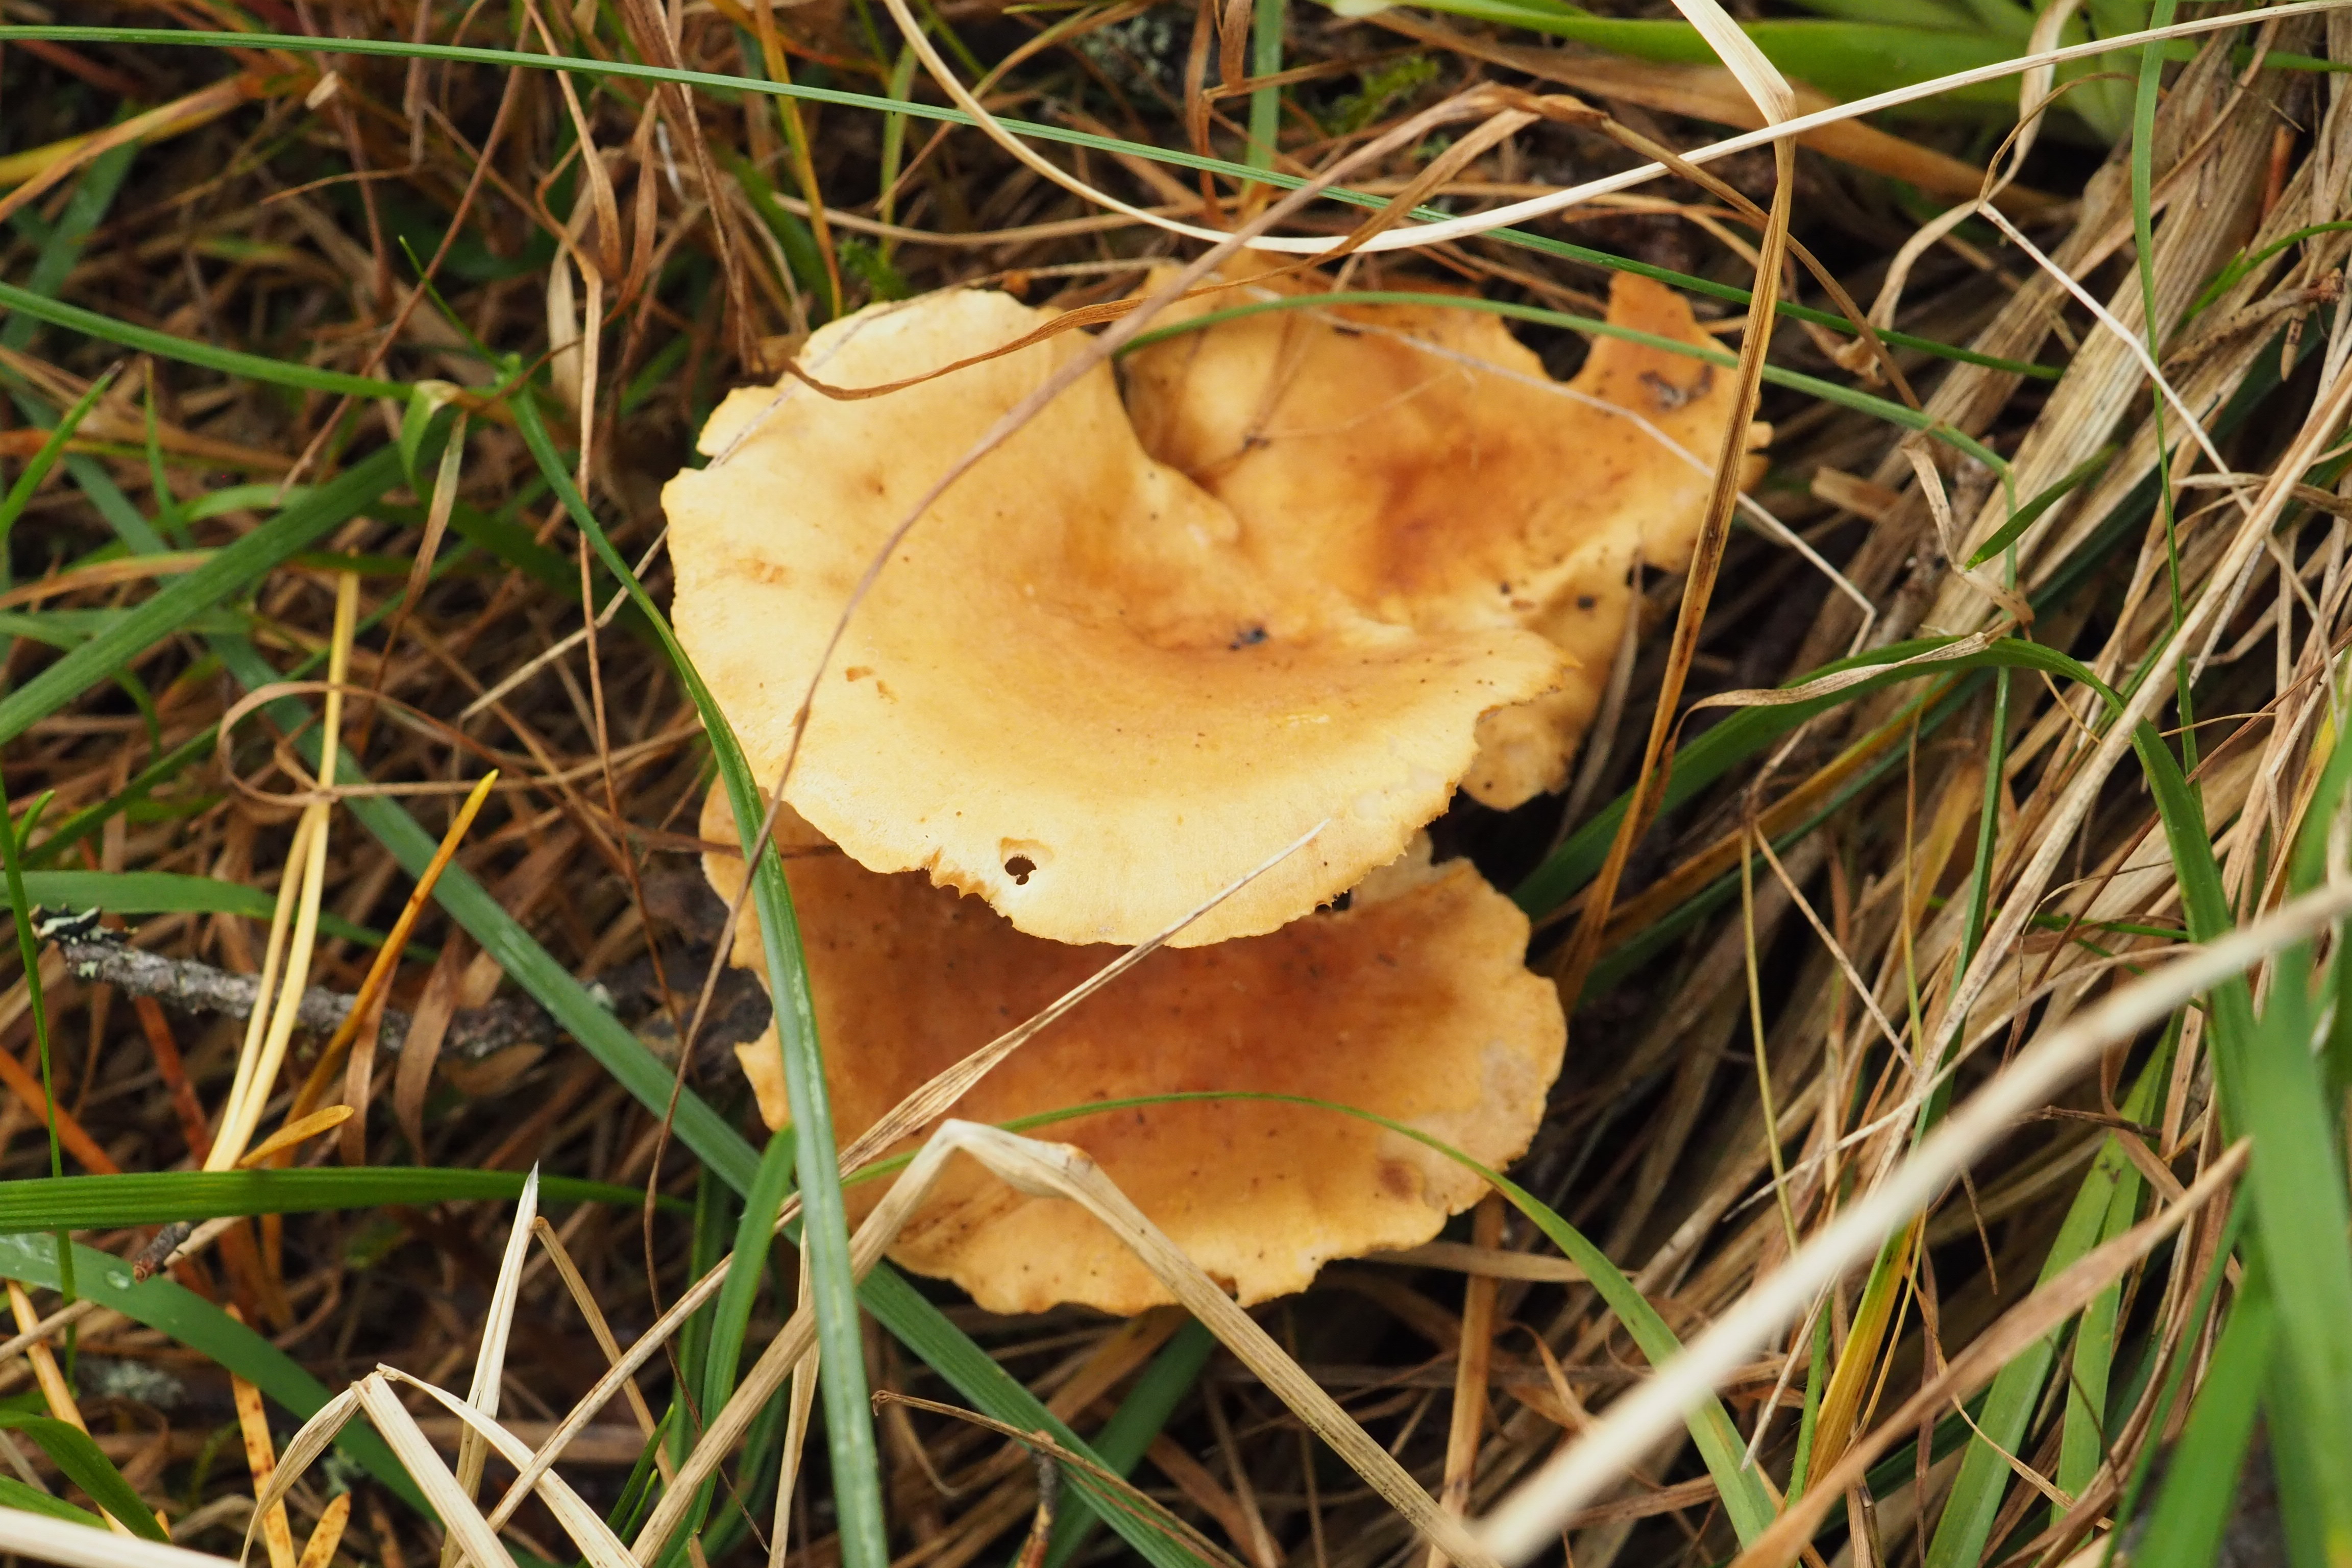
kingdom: Fungi
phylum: Basidiomycota
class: Agaricomycetes
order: Polyporales
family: Polyporaceae
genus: Picipes
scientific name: Picipes melanopus
